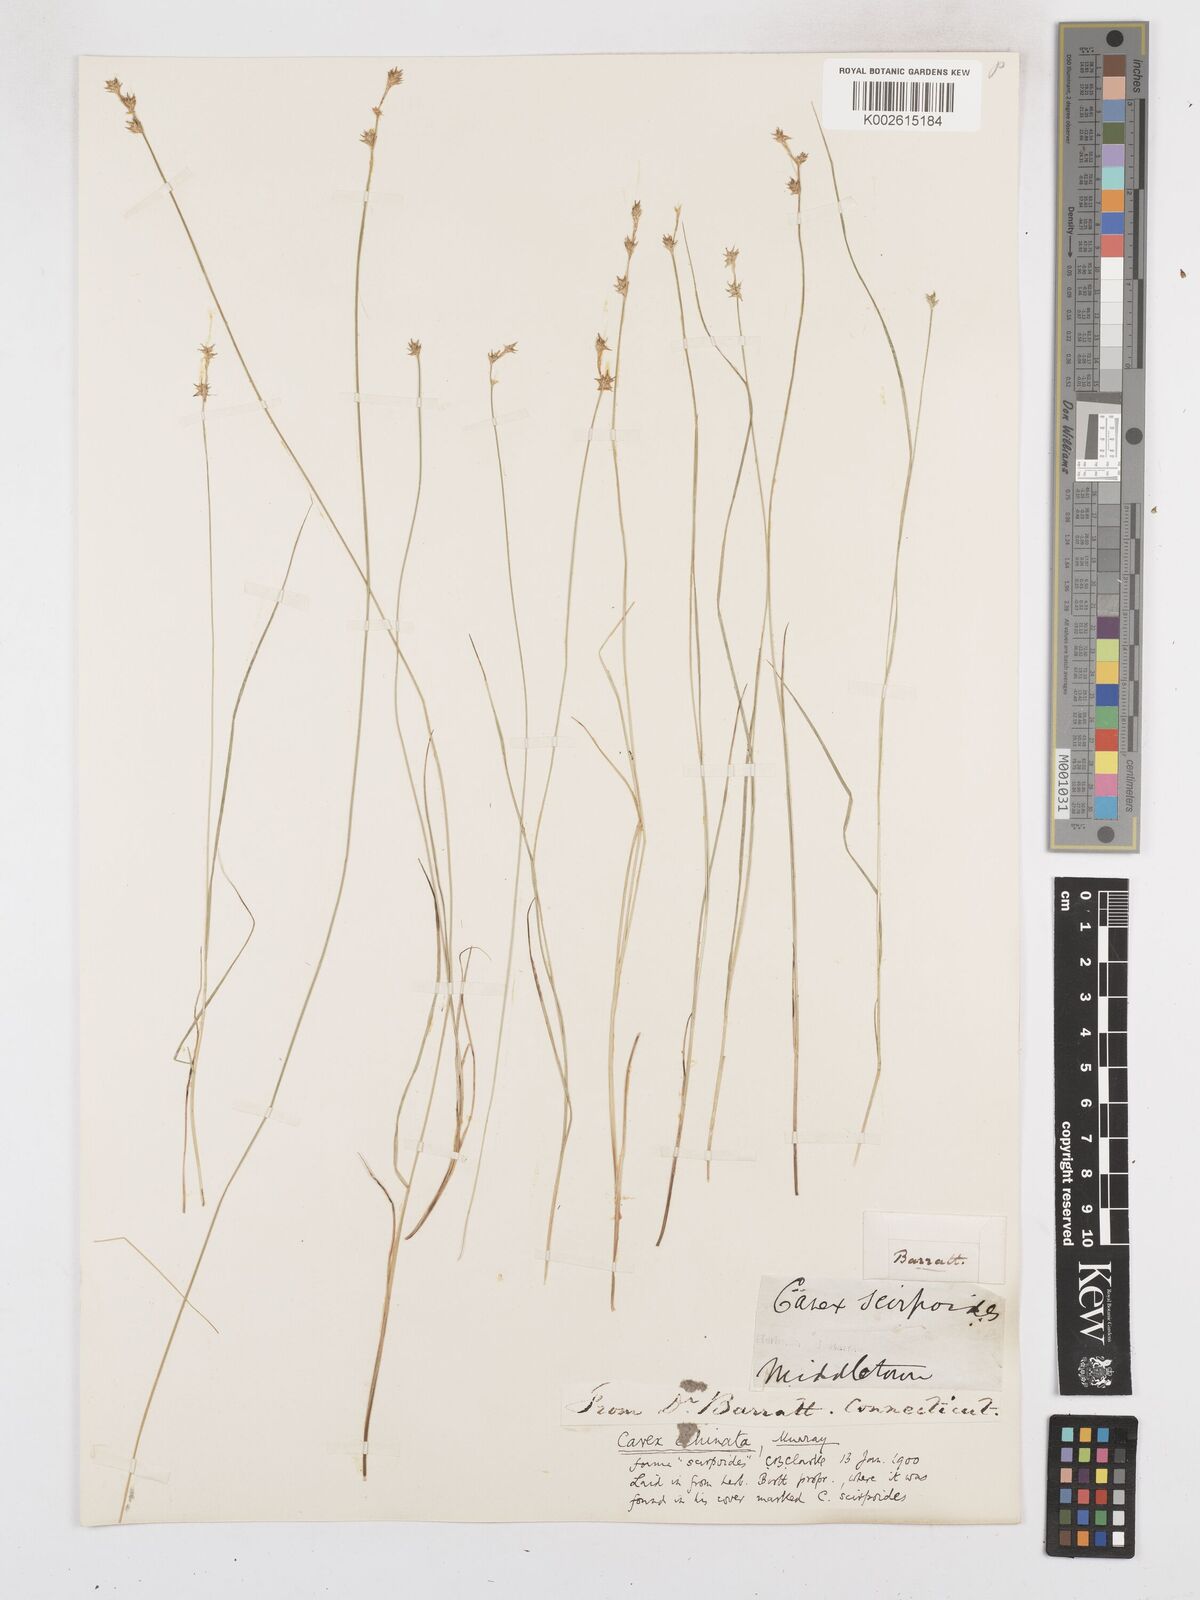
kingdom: Plantae
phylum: Tracheophyta
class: Liliopsida
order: Poales
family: Cyperaceae
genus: Carex
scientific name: Carex echinata
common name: Star sedge
